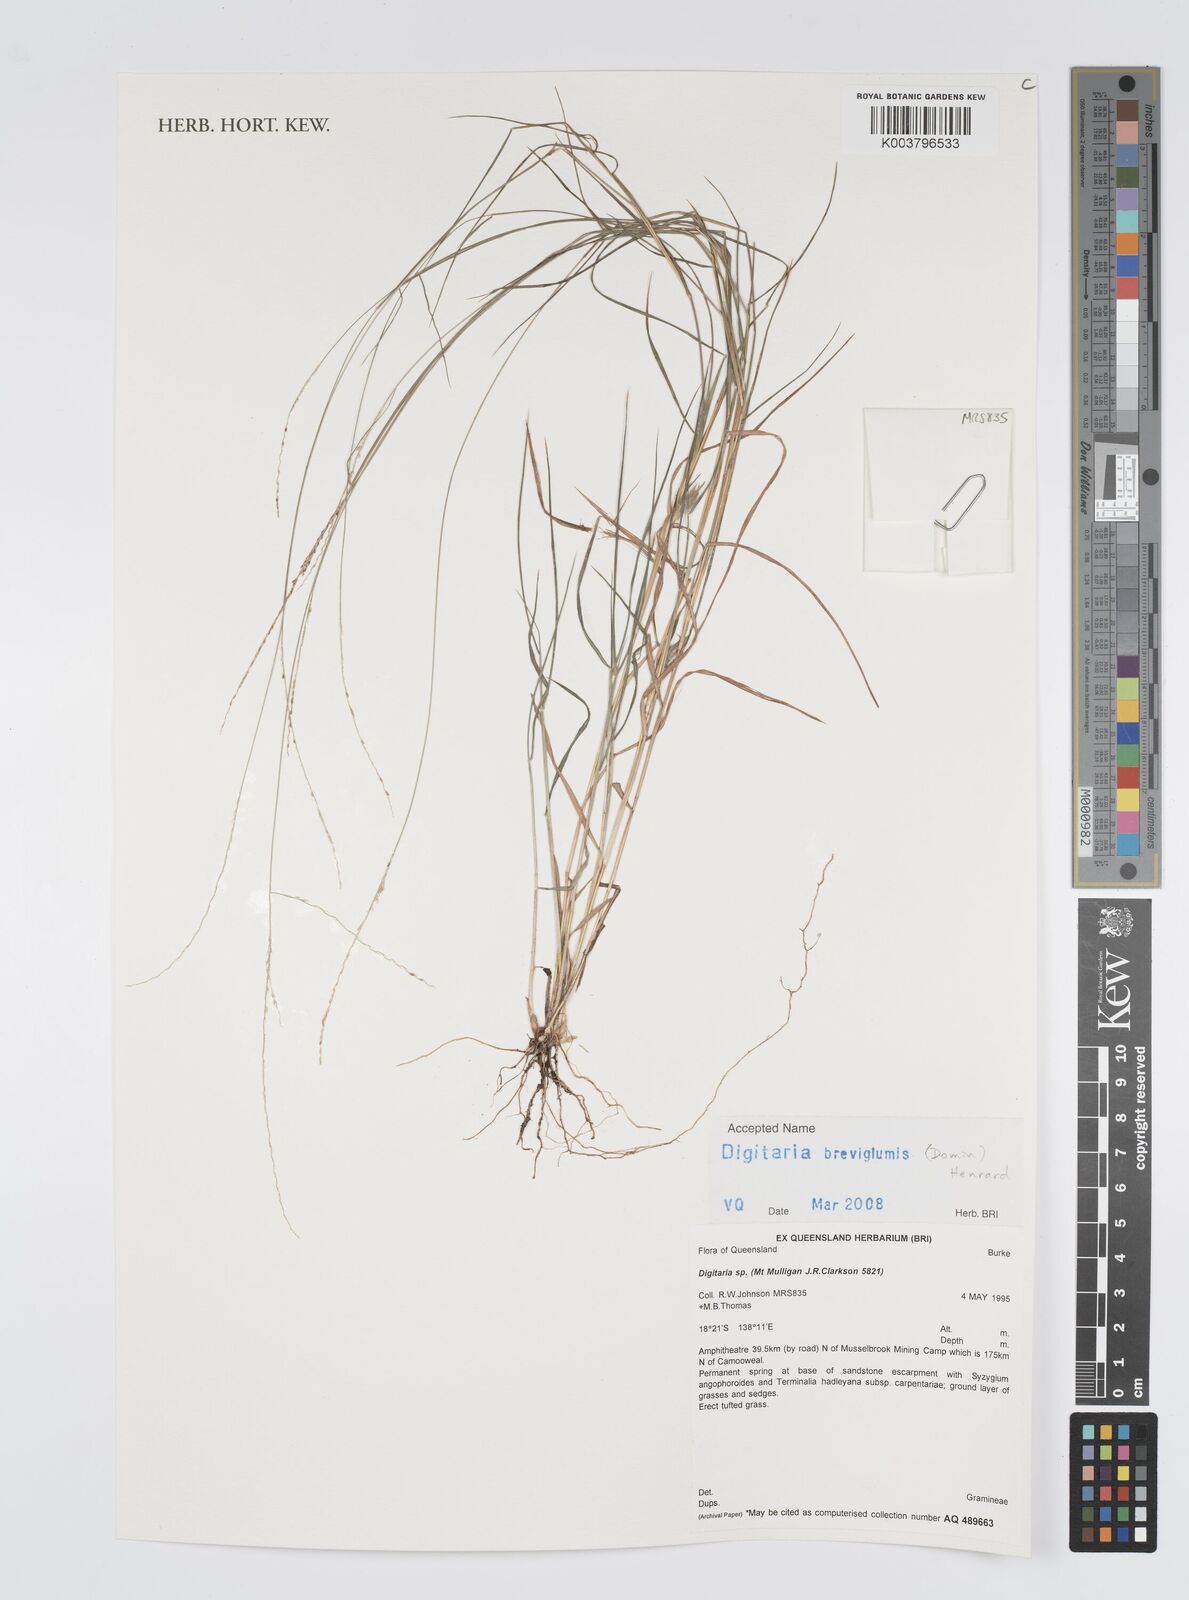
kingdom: Plantae
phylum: Tracheophyta
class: Liliopsida
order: Poales
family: Poaceae
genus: Digitaria
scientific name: Digitaria breviglumis
